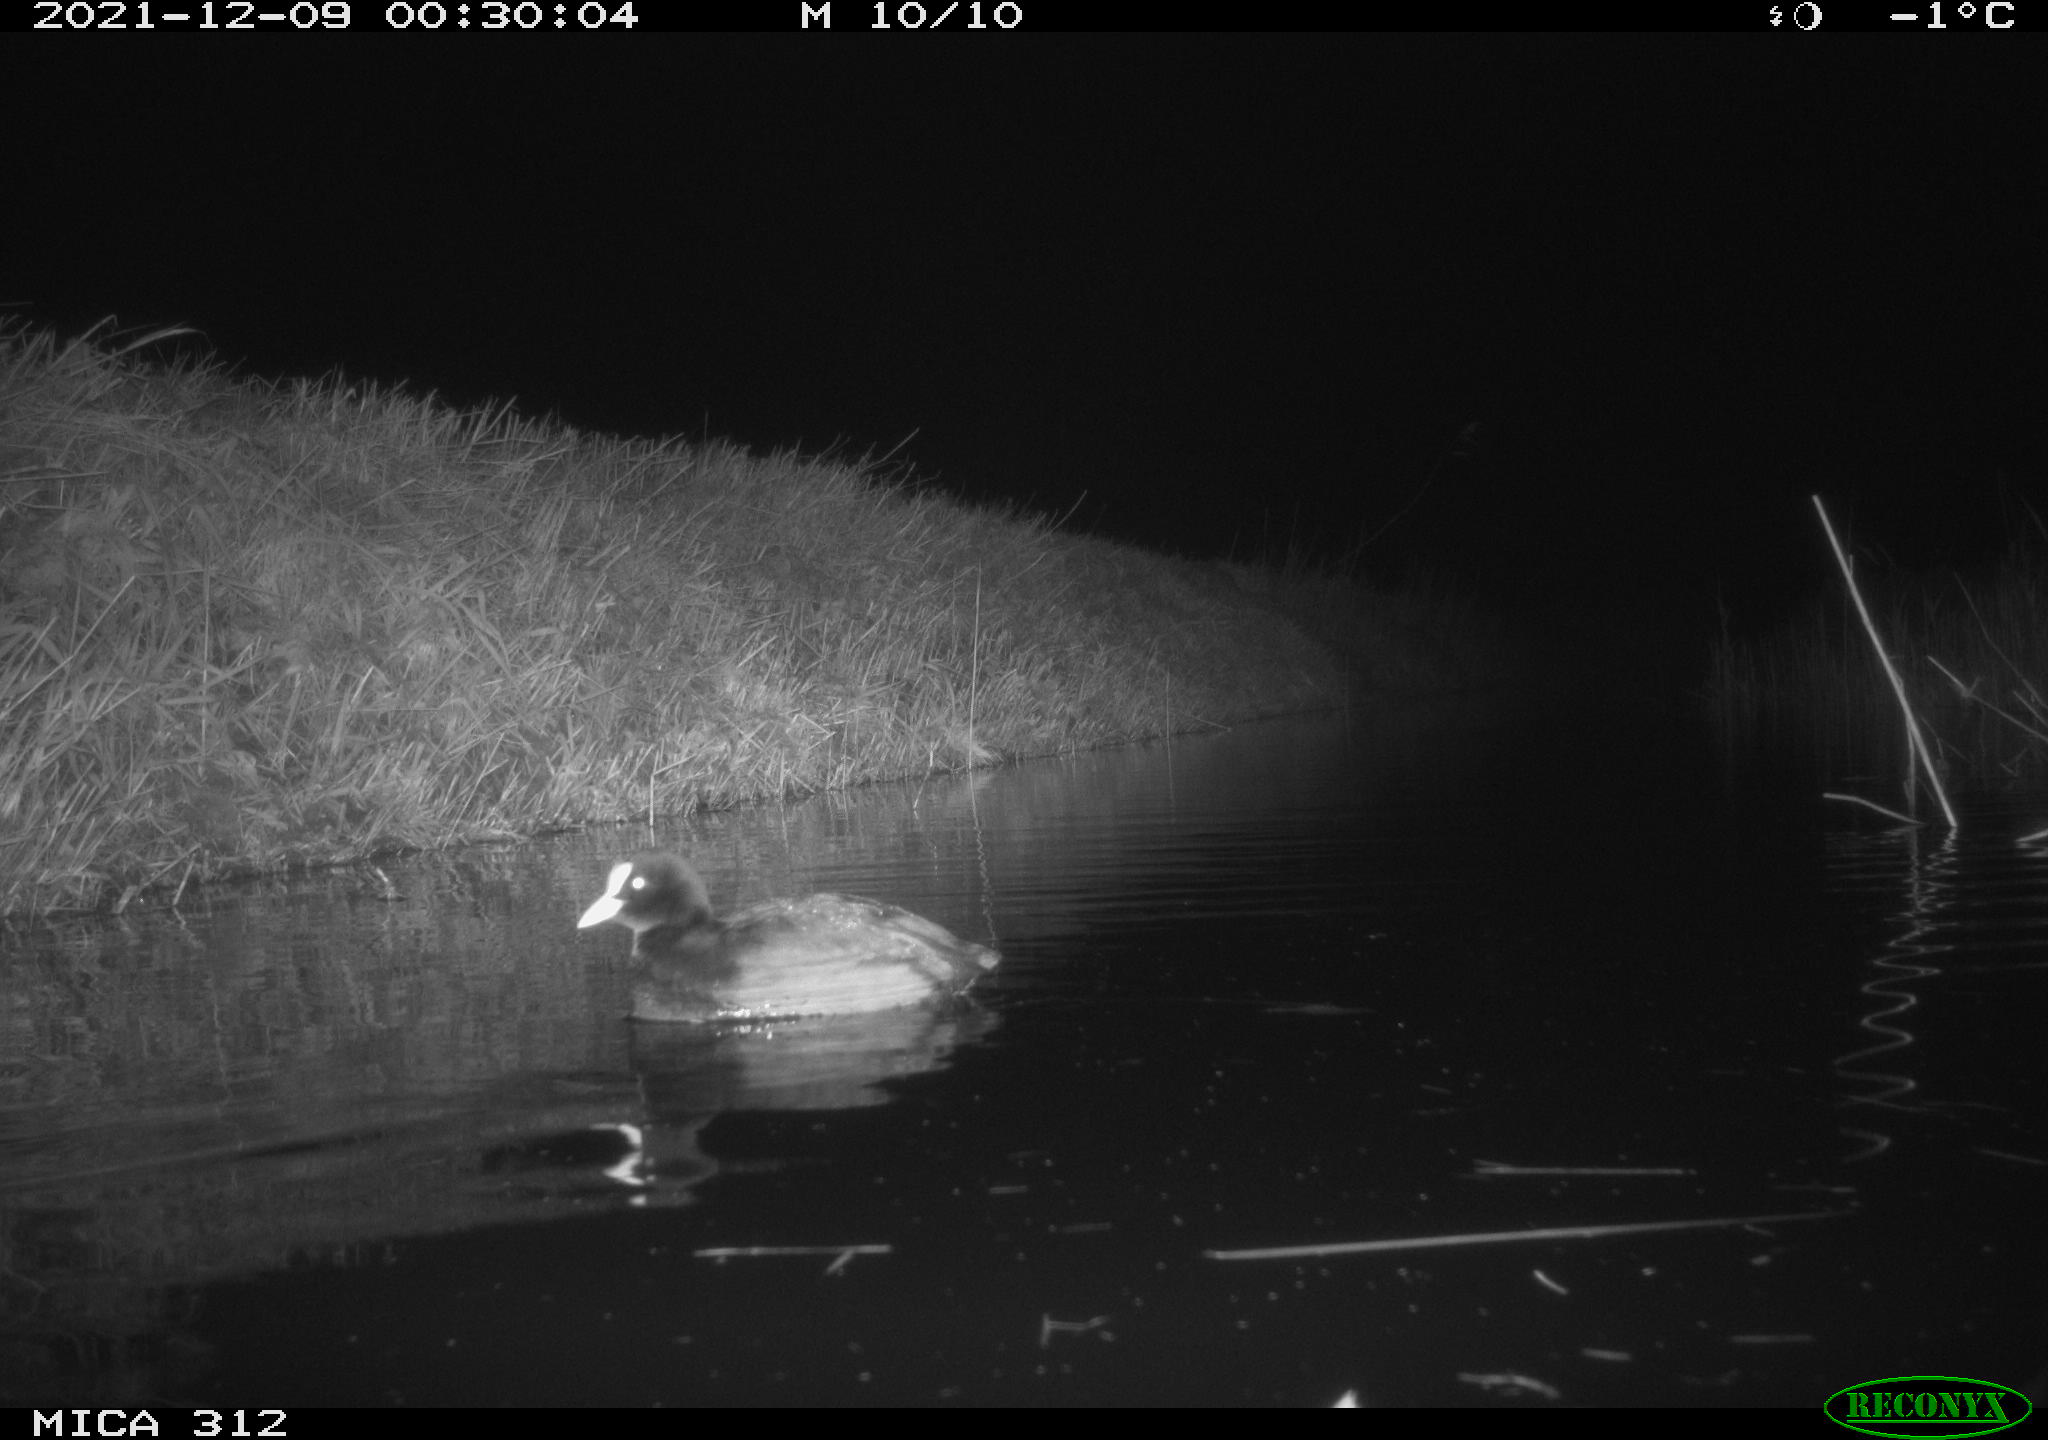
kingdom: Animalia
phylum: Chordata
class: Aves
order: Gruiformes
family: Rallidae
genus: Fulica
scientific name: Fulica atra
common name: Eurasian coot
